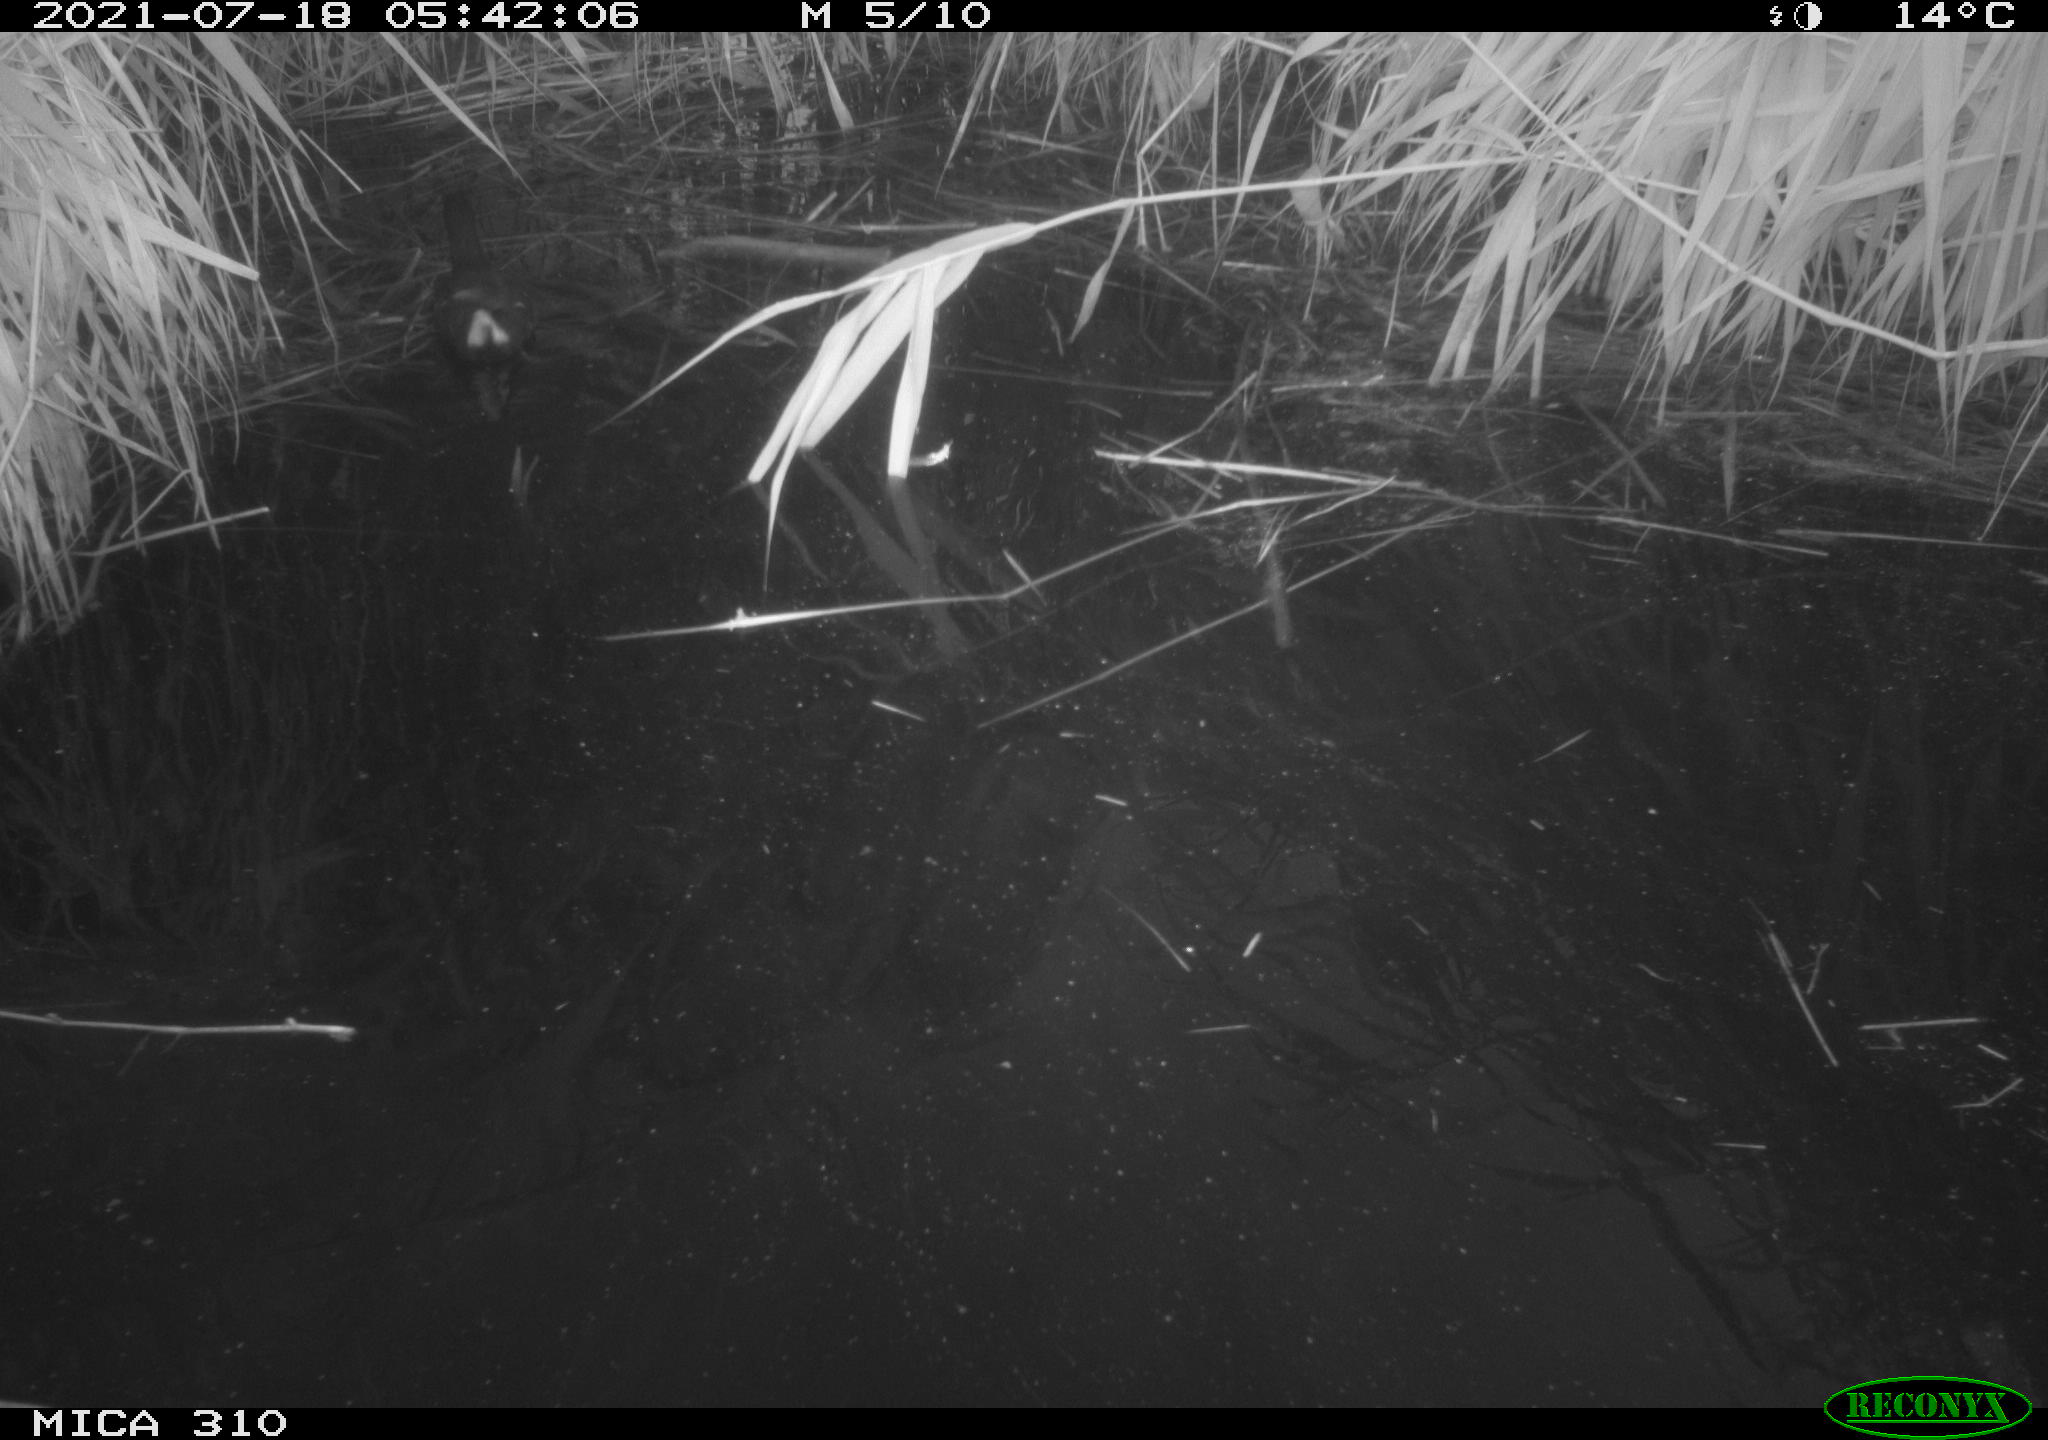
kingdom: Animalia
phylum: Chordata
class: Aves
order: Gruiformes
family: Rallidae
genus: Gallinula
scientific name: Gallinula chloropus
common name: Common moorhen
